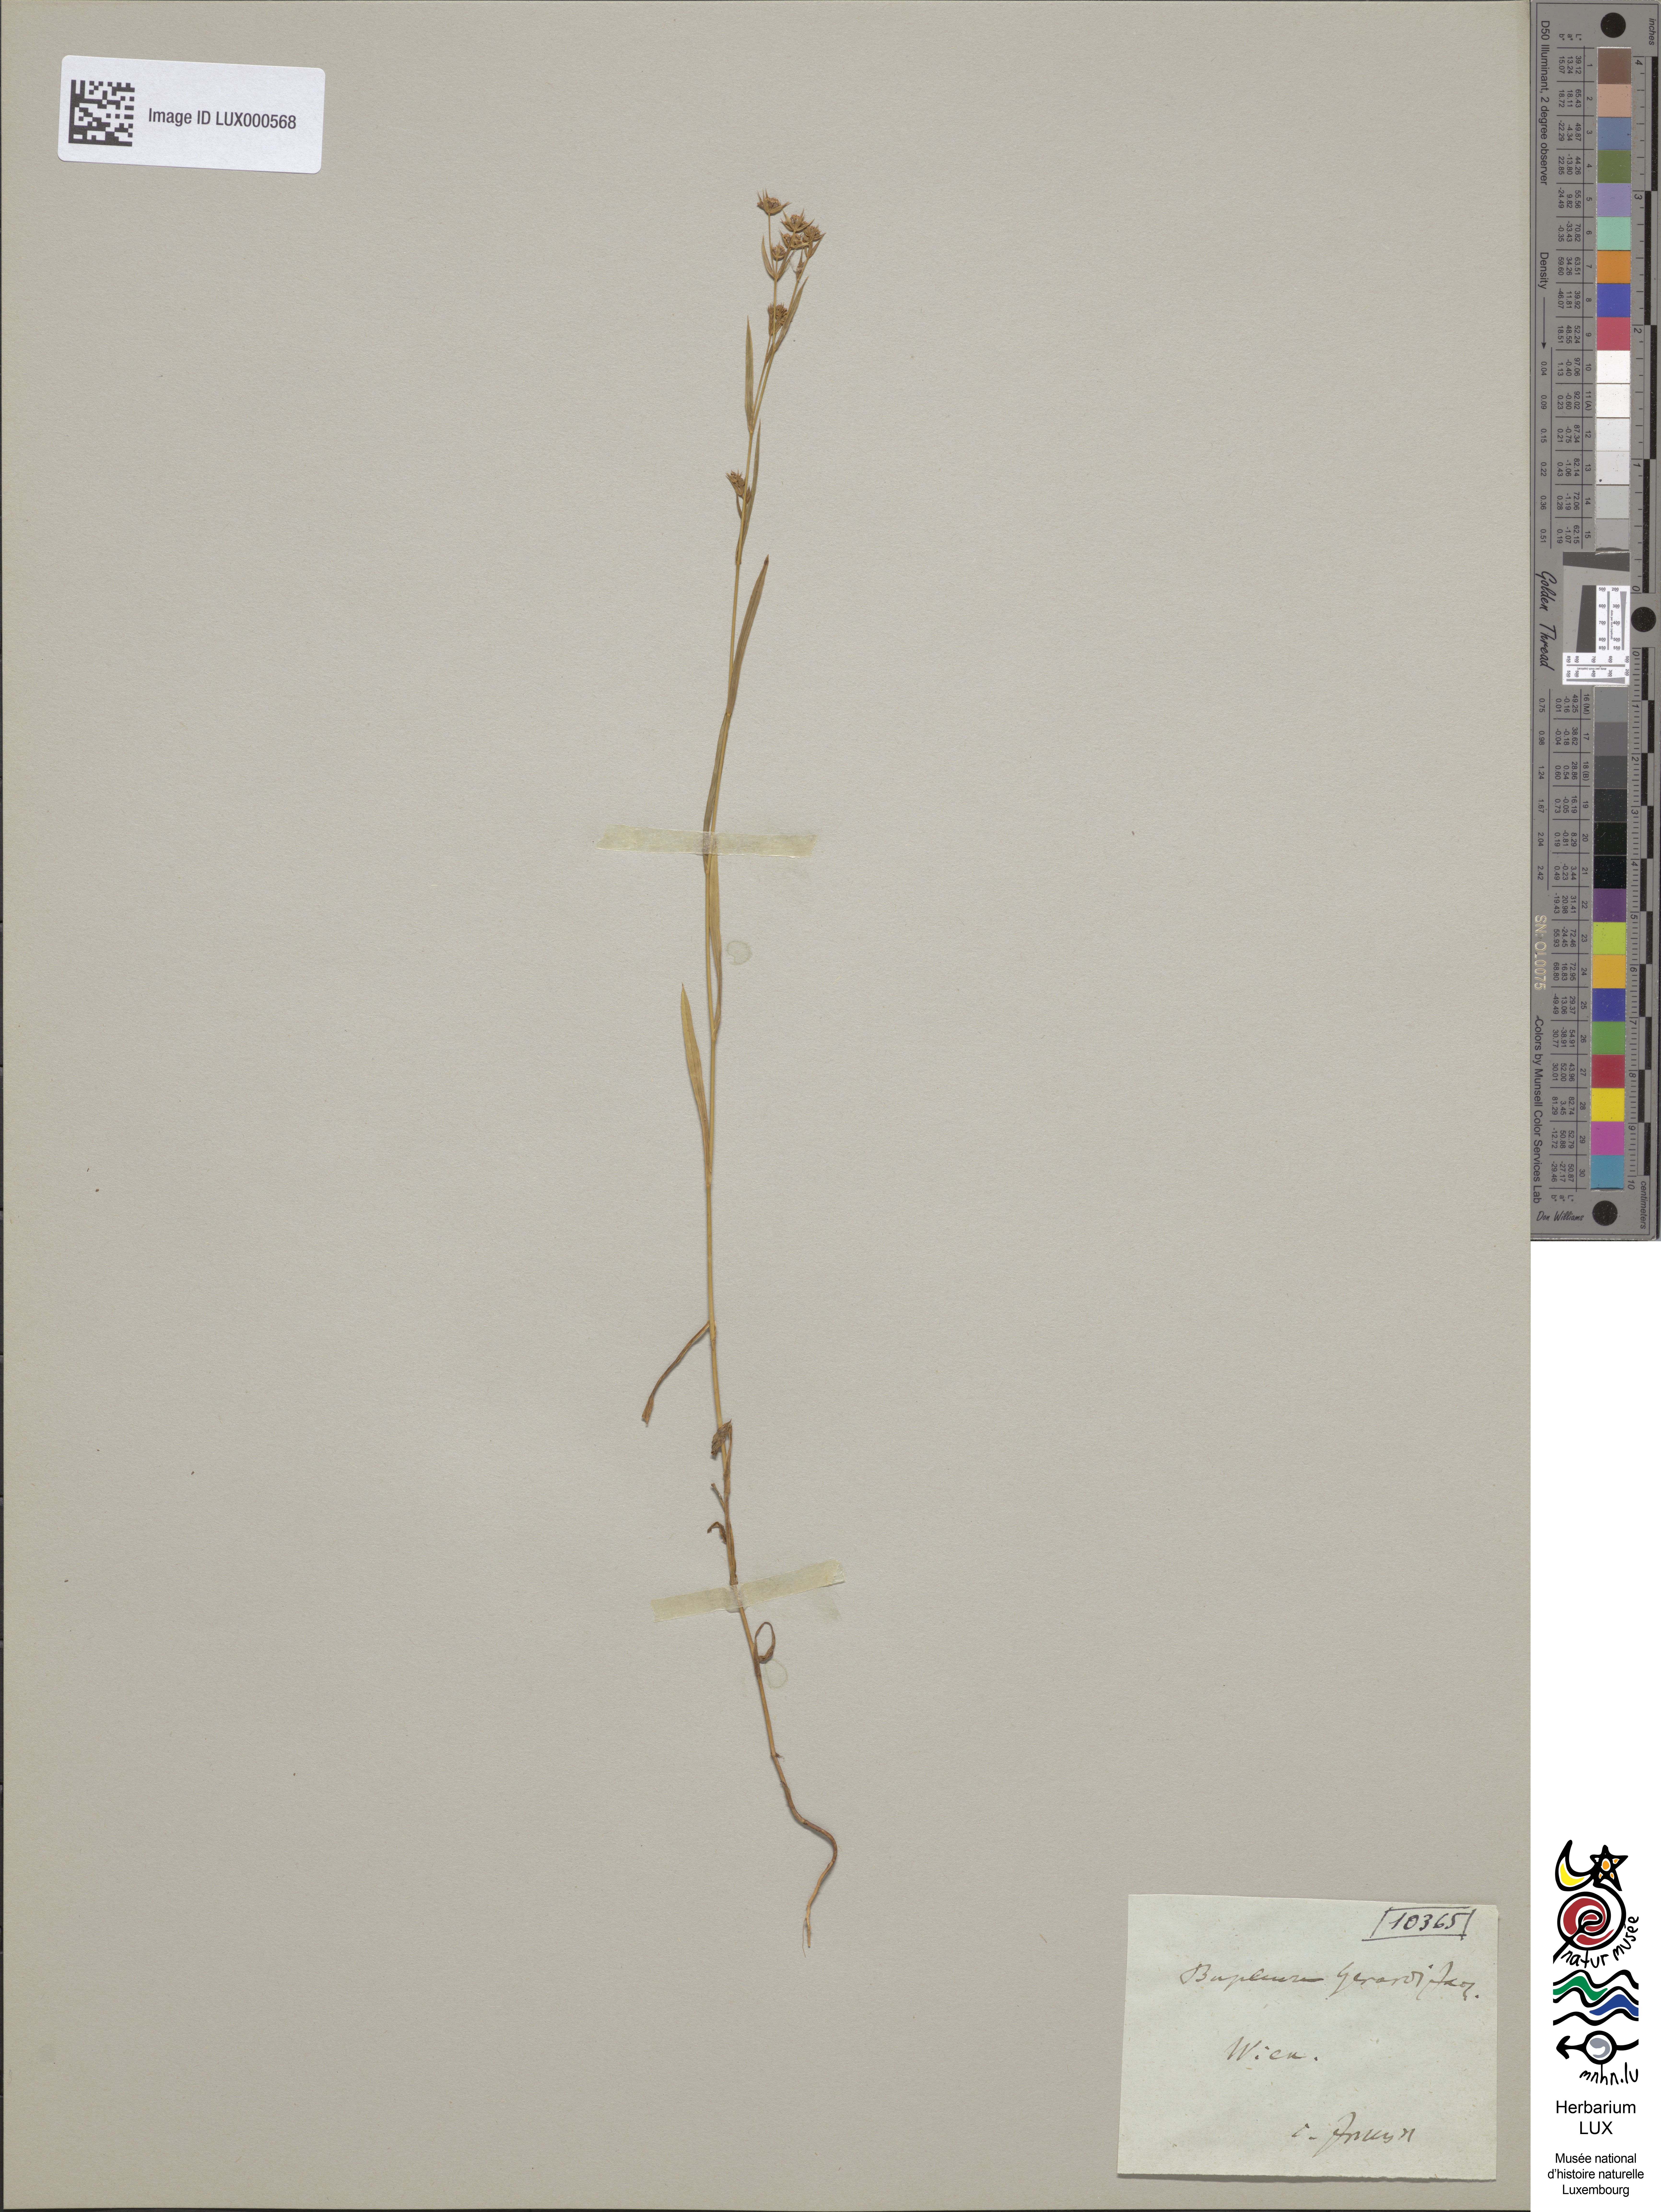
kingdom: Plantae
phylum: Tracheophyta
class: Magnoliopsida
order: Apiales
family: Apiaceae
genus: Bupleurum
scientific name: Bupleurum gerardi
